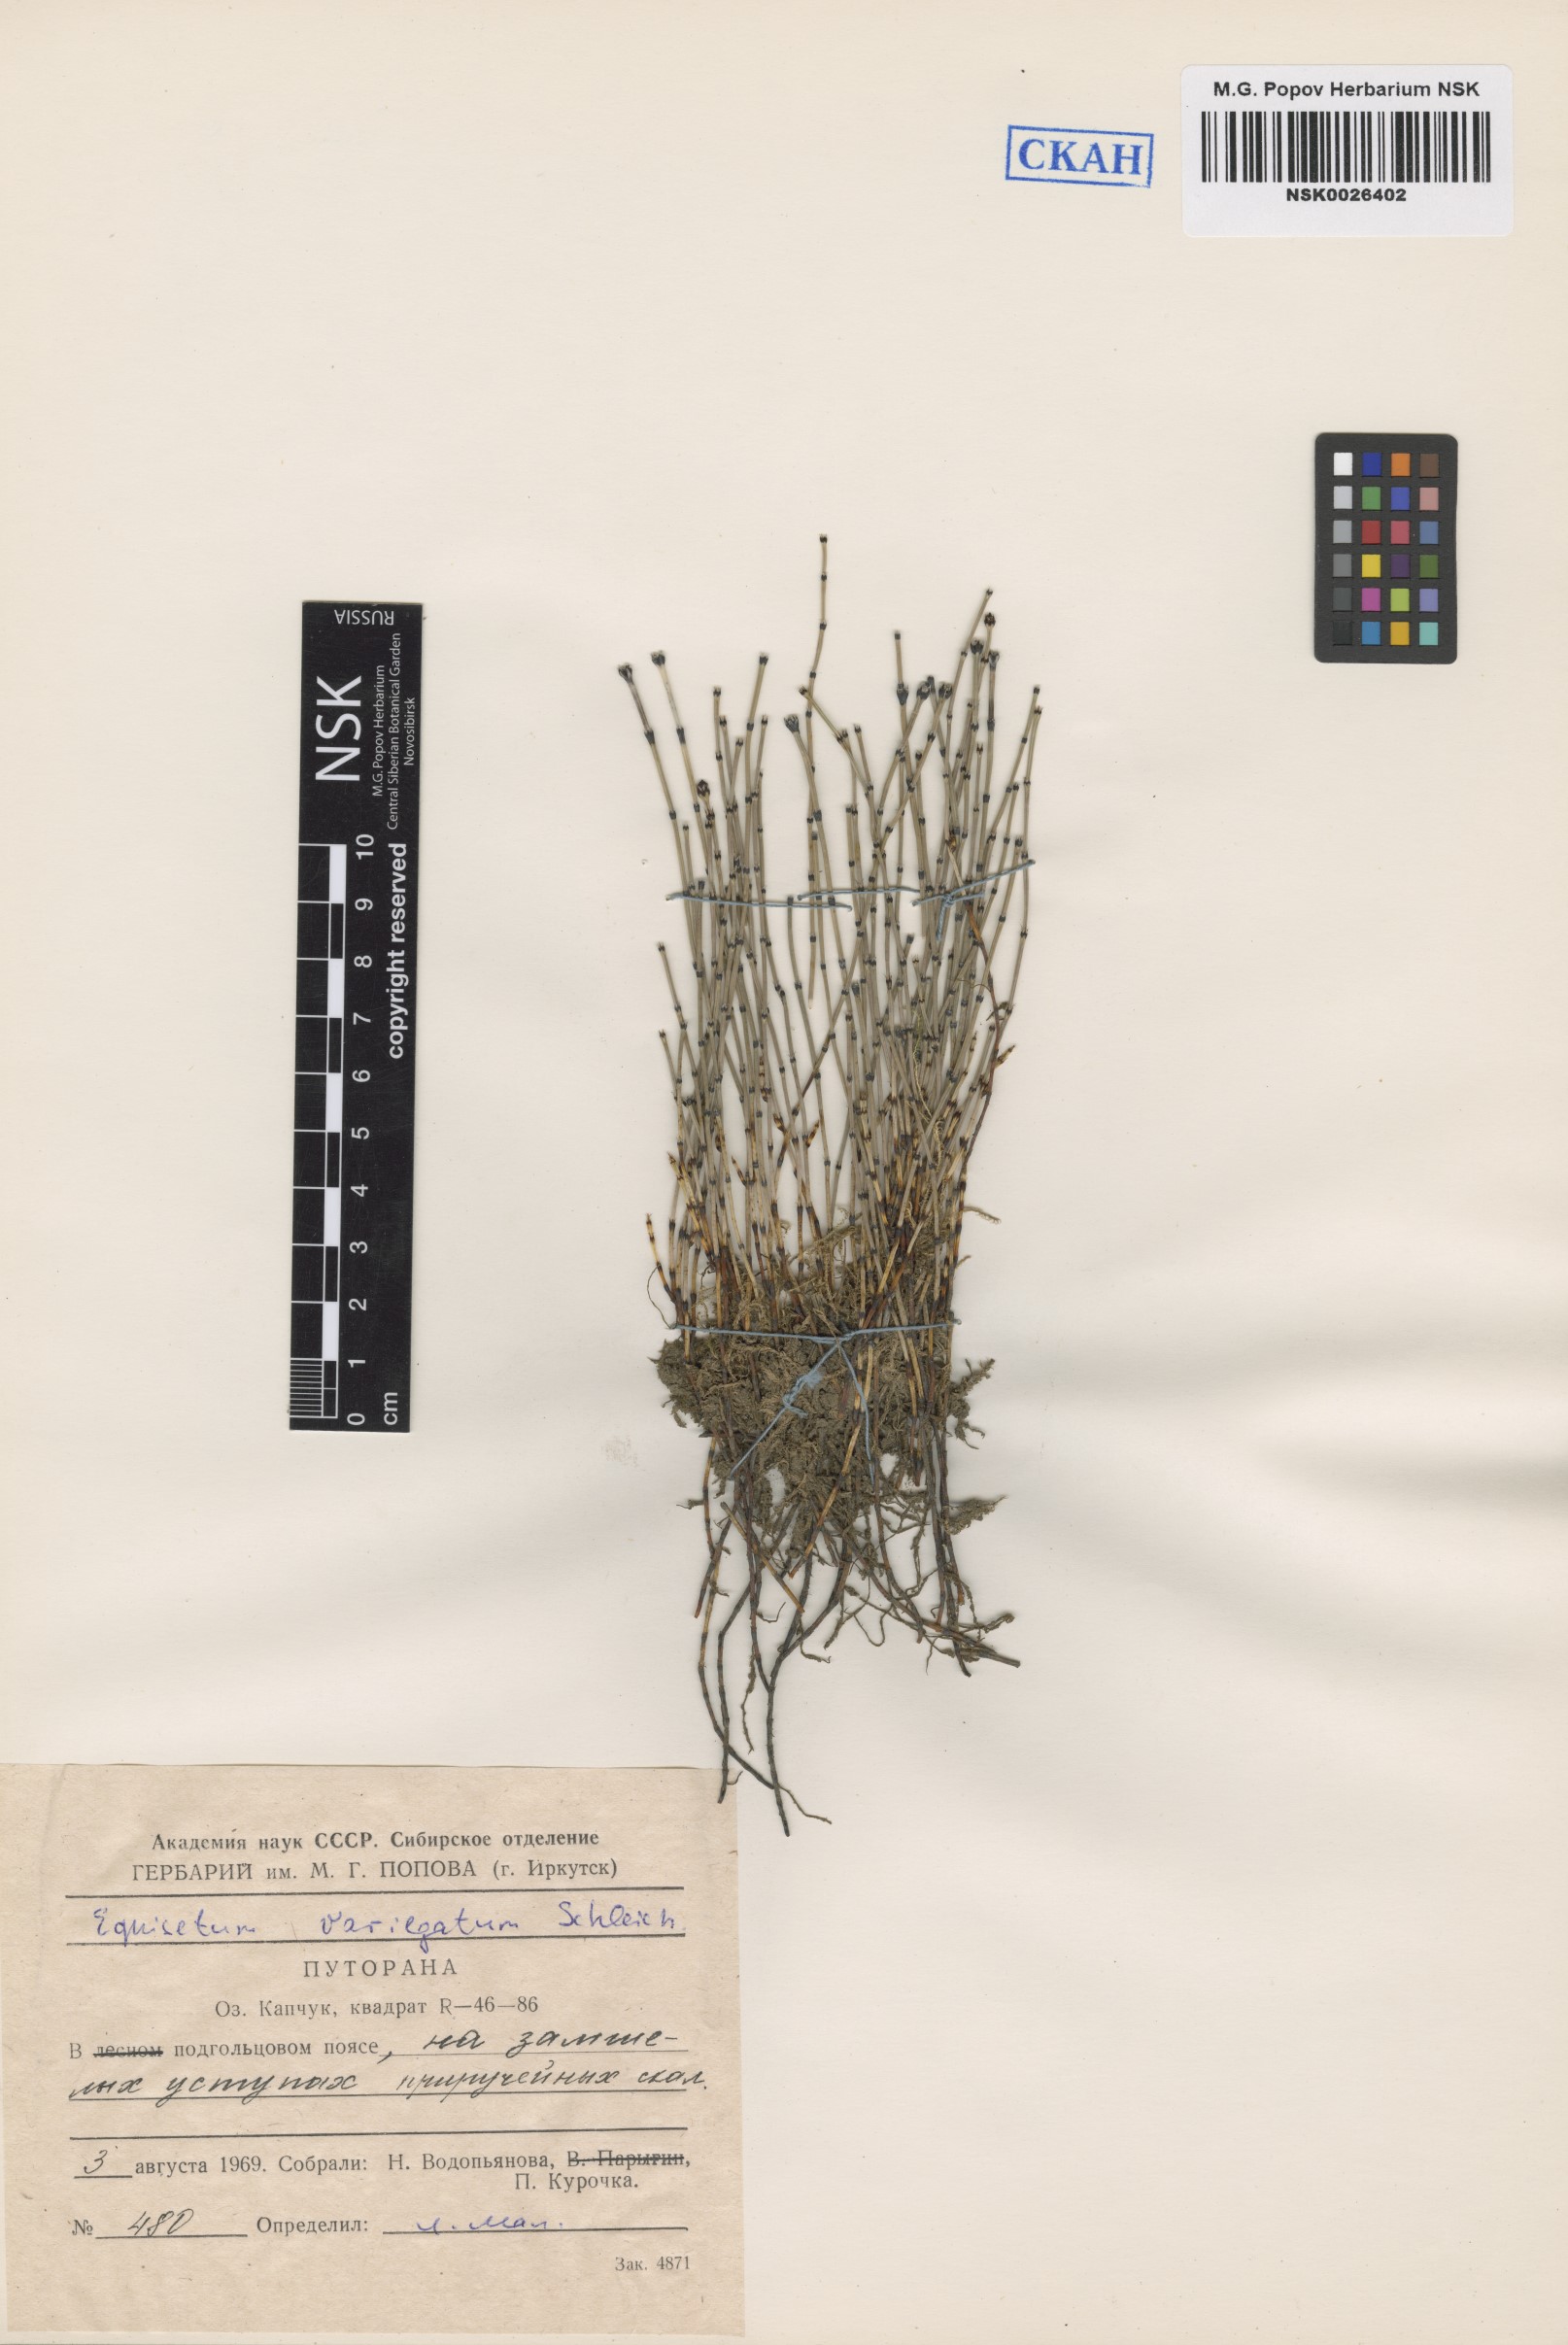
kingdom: Plantae
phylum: Tracheophyta
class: Polypodiopsida
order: Equisetales
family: Equisetaceae
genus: Equisetum
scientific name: Equisetum variegatum
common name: Variegated horsetail
